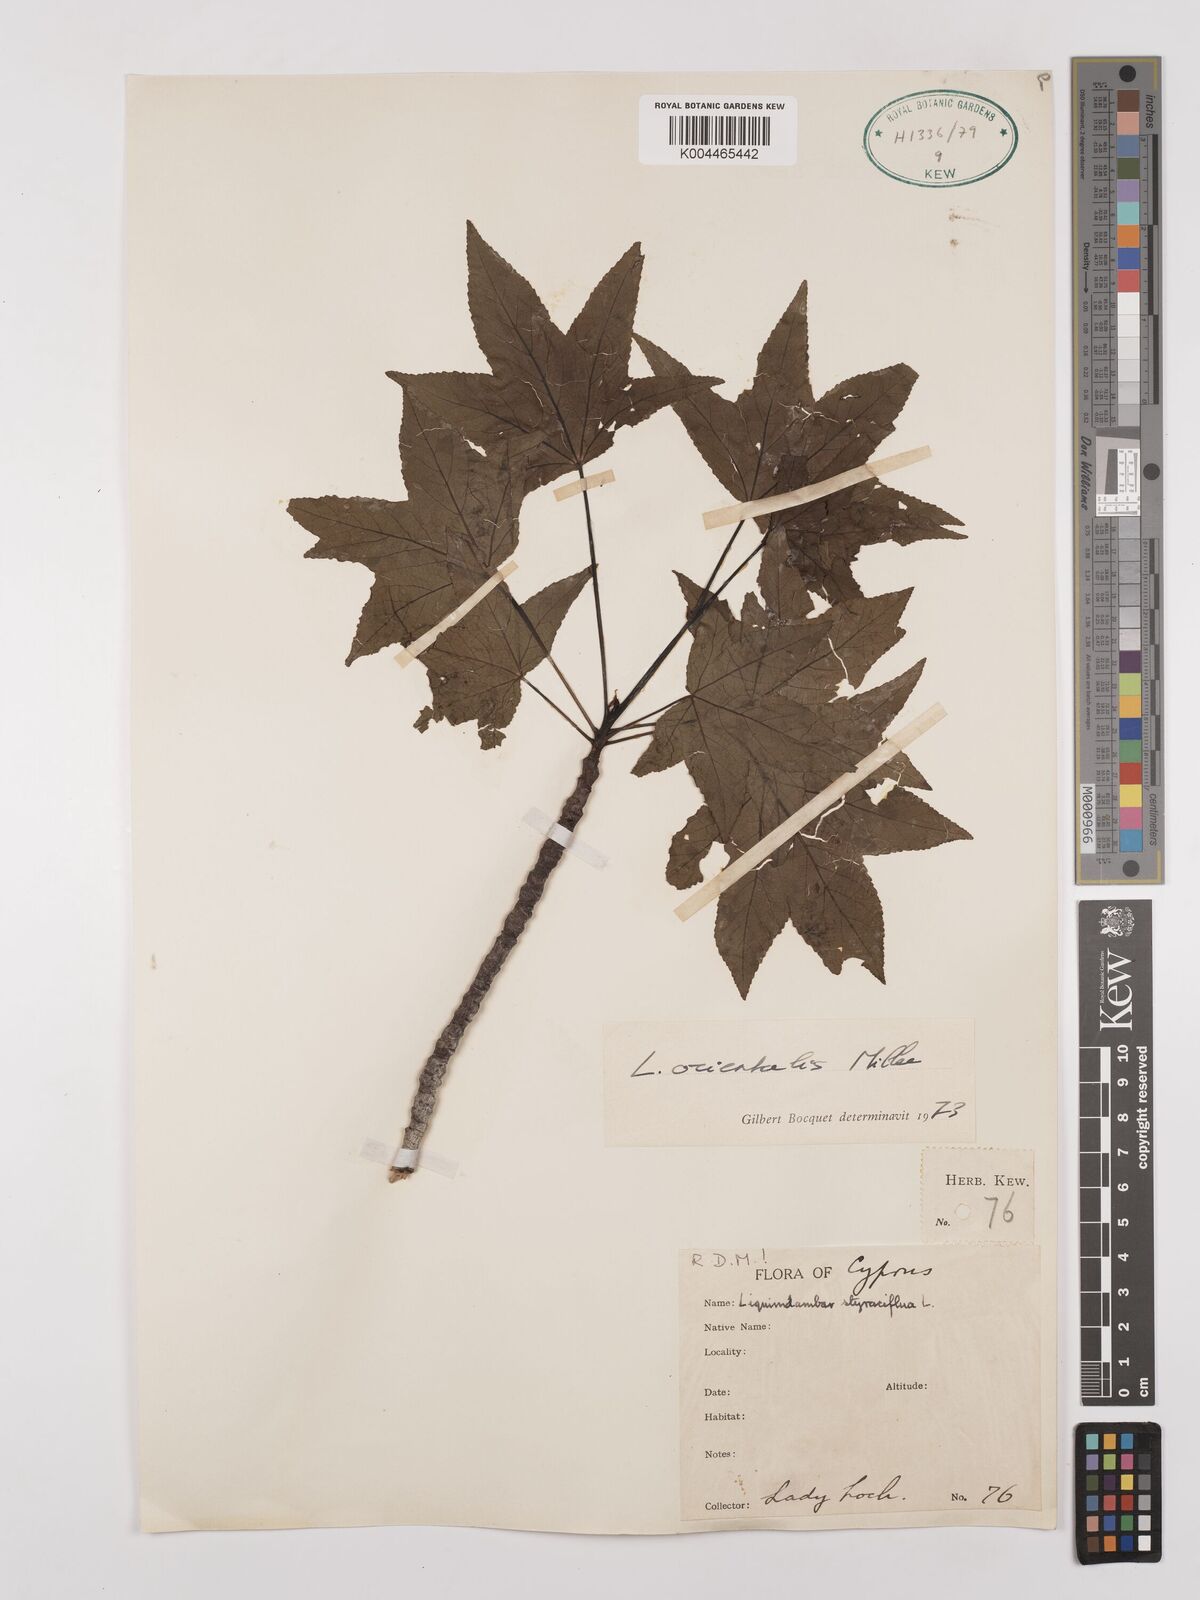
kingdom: Plantae
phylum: Tracheophyta
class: Magnoliopsida
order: Saxifragales
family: Altingiaceae
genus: Liquidambar
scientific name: Liquidambar orientalis
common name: Oriental sweetgum
